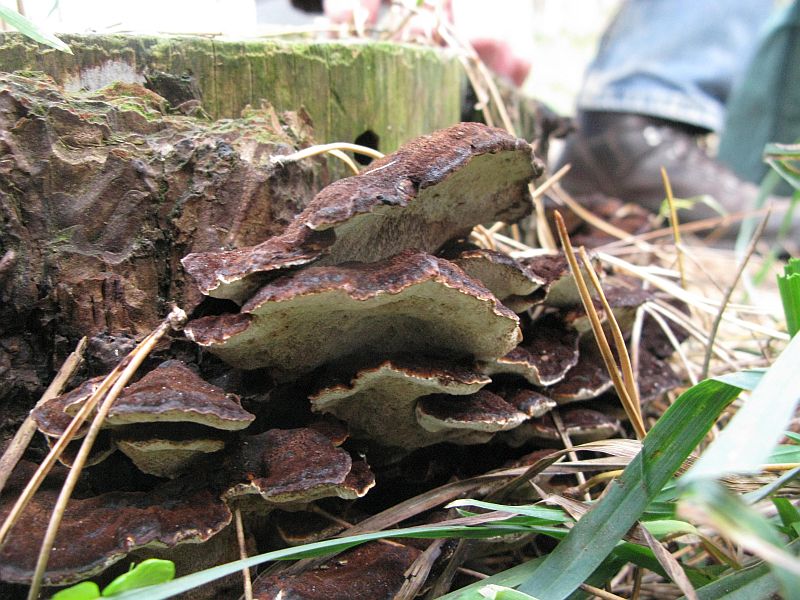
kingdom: Fungi
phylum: Basidiomycota
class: Agaricomycetes
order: Polyporales
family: Ischnodermataceae
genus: Ischnoderma
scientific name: Ischnoderma benzoinum
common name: gran-tjæreporesvamp
